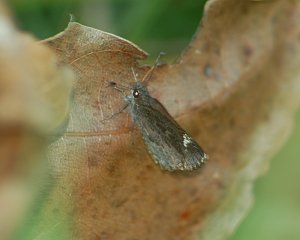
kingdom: Animalia
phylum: Arthropoda
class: Insecta
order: Lepidoptera
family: Hesperiidae
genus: Mastor
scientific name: Mastor vialis
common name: Common Roadside-Skipper
